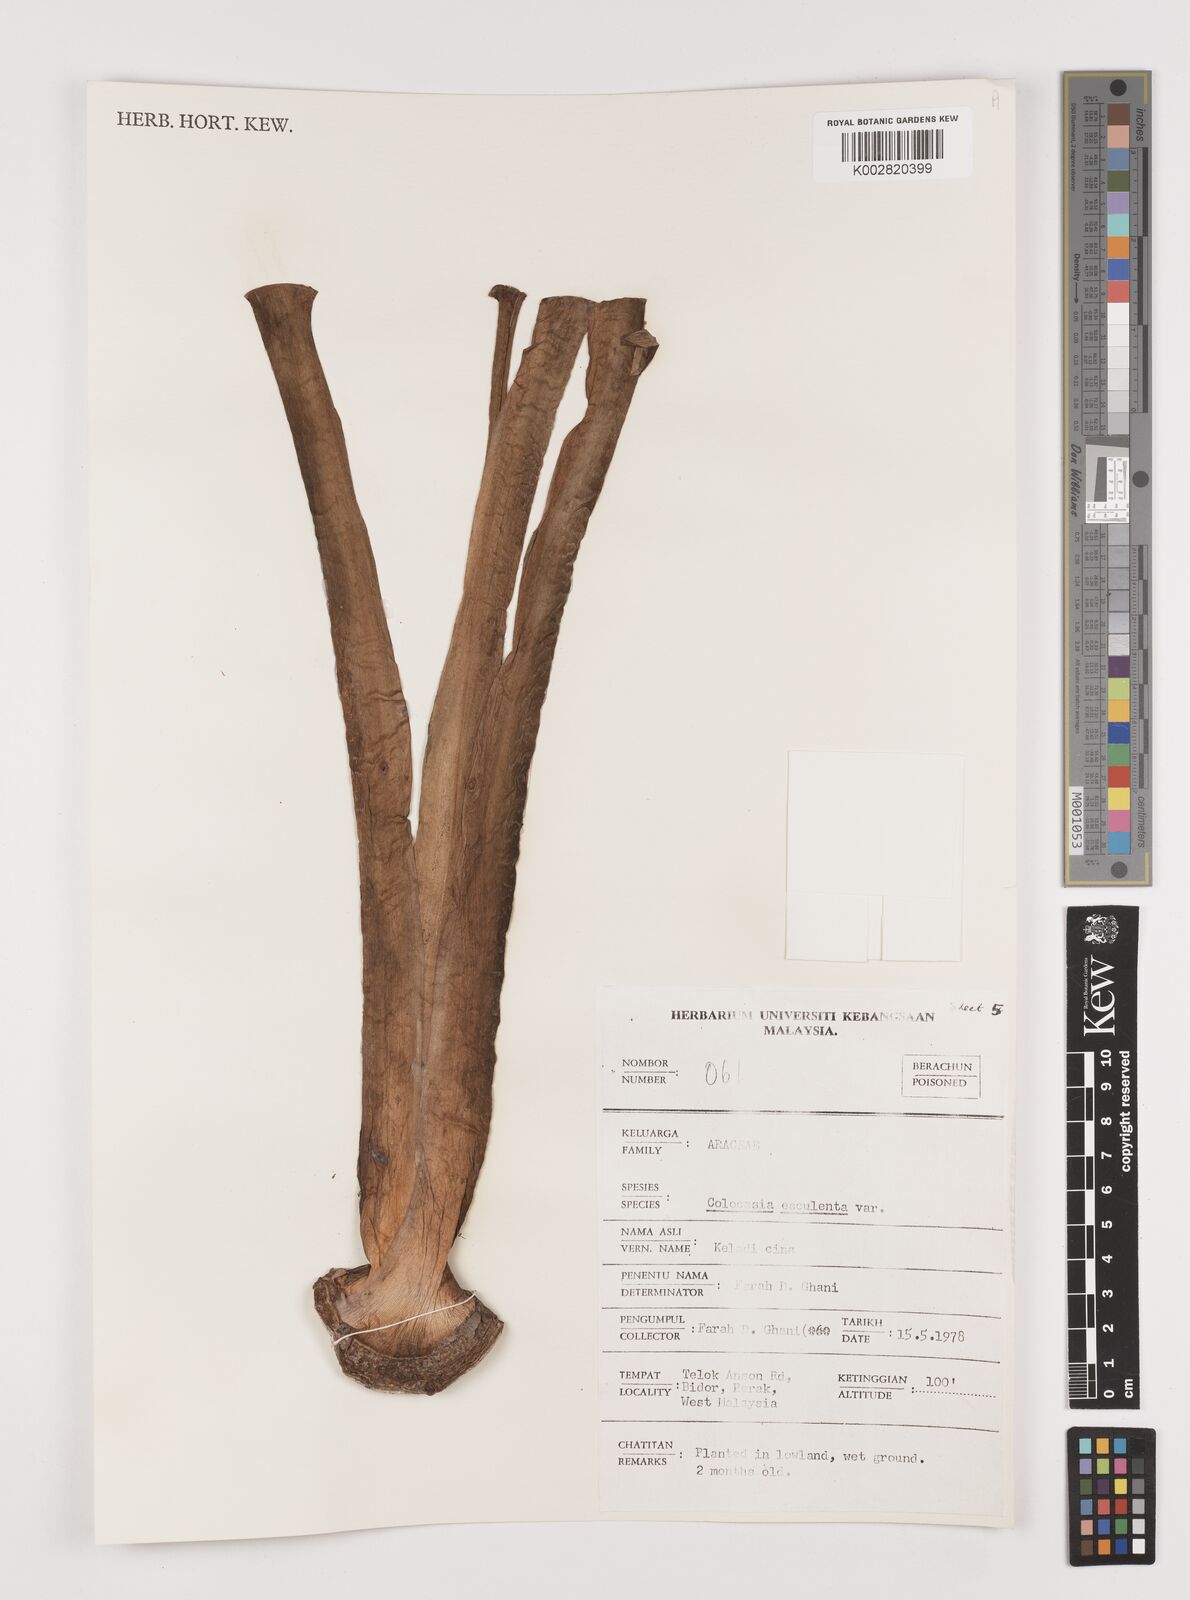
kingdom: Plantae
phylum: Tracheophyta
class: Liliopsida
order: Alismatales
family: Araceae
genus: Colocasia
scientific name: Colocasia esculenta
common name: Taro
